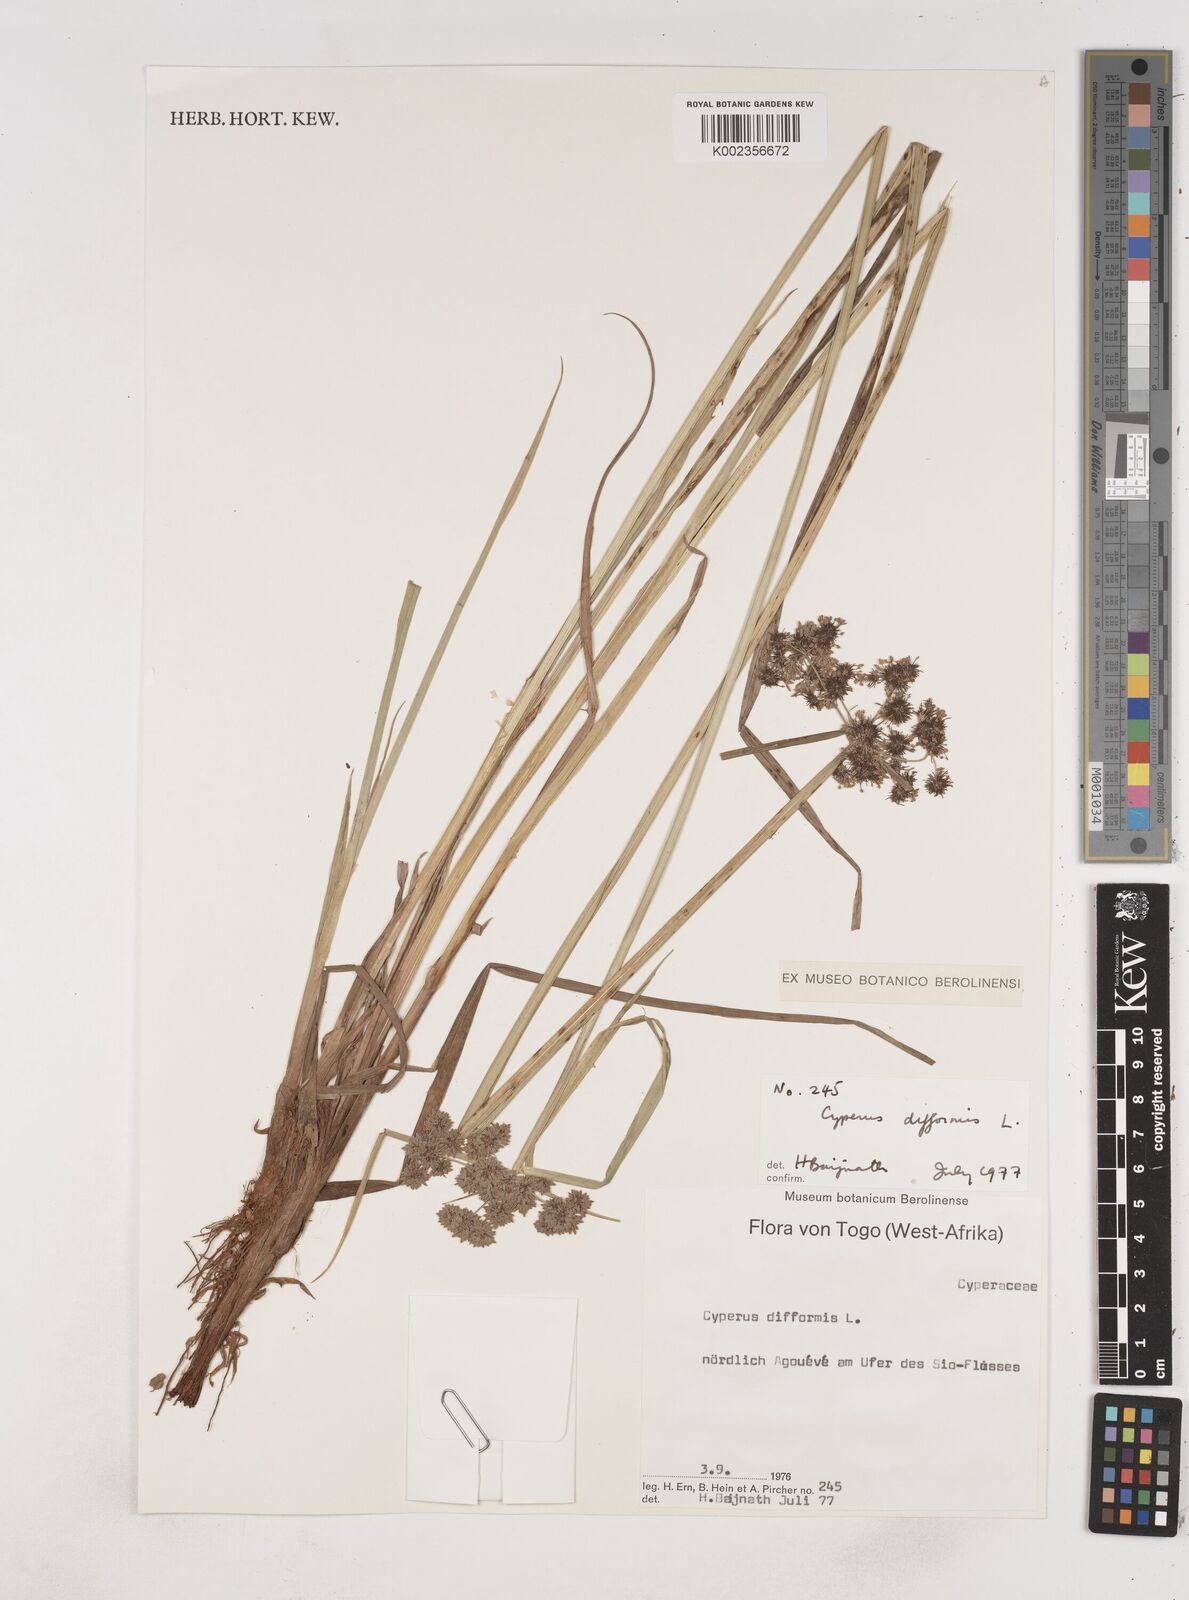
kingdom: Plantae
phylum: Tracheophyta
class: Liliopsida
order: Poales
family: Cyperaceae
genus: Cyperus
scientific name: Cyperus difformis
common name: Variable flatsedge
